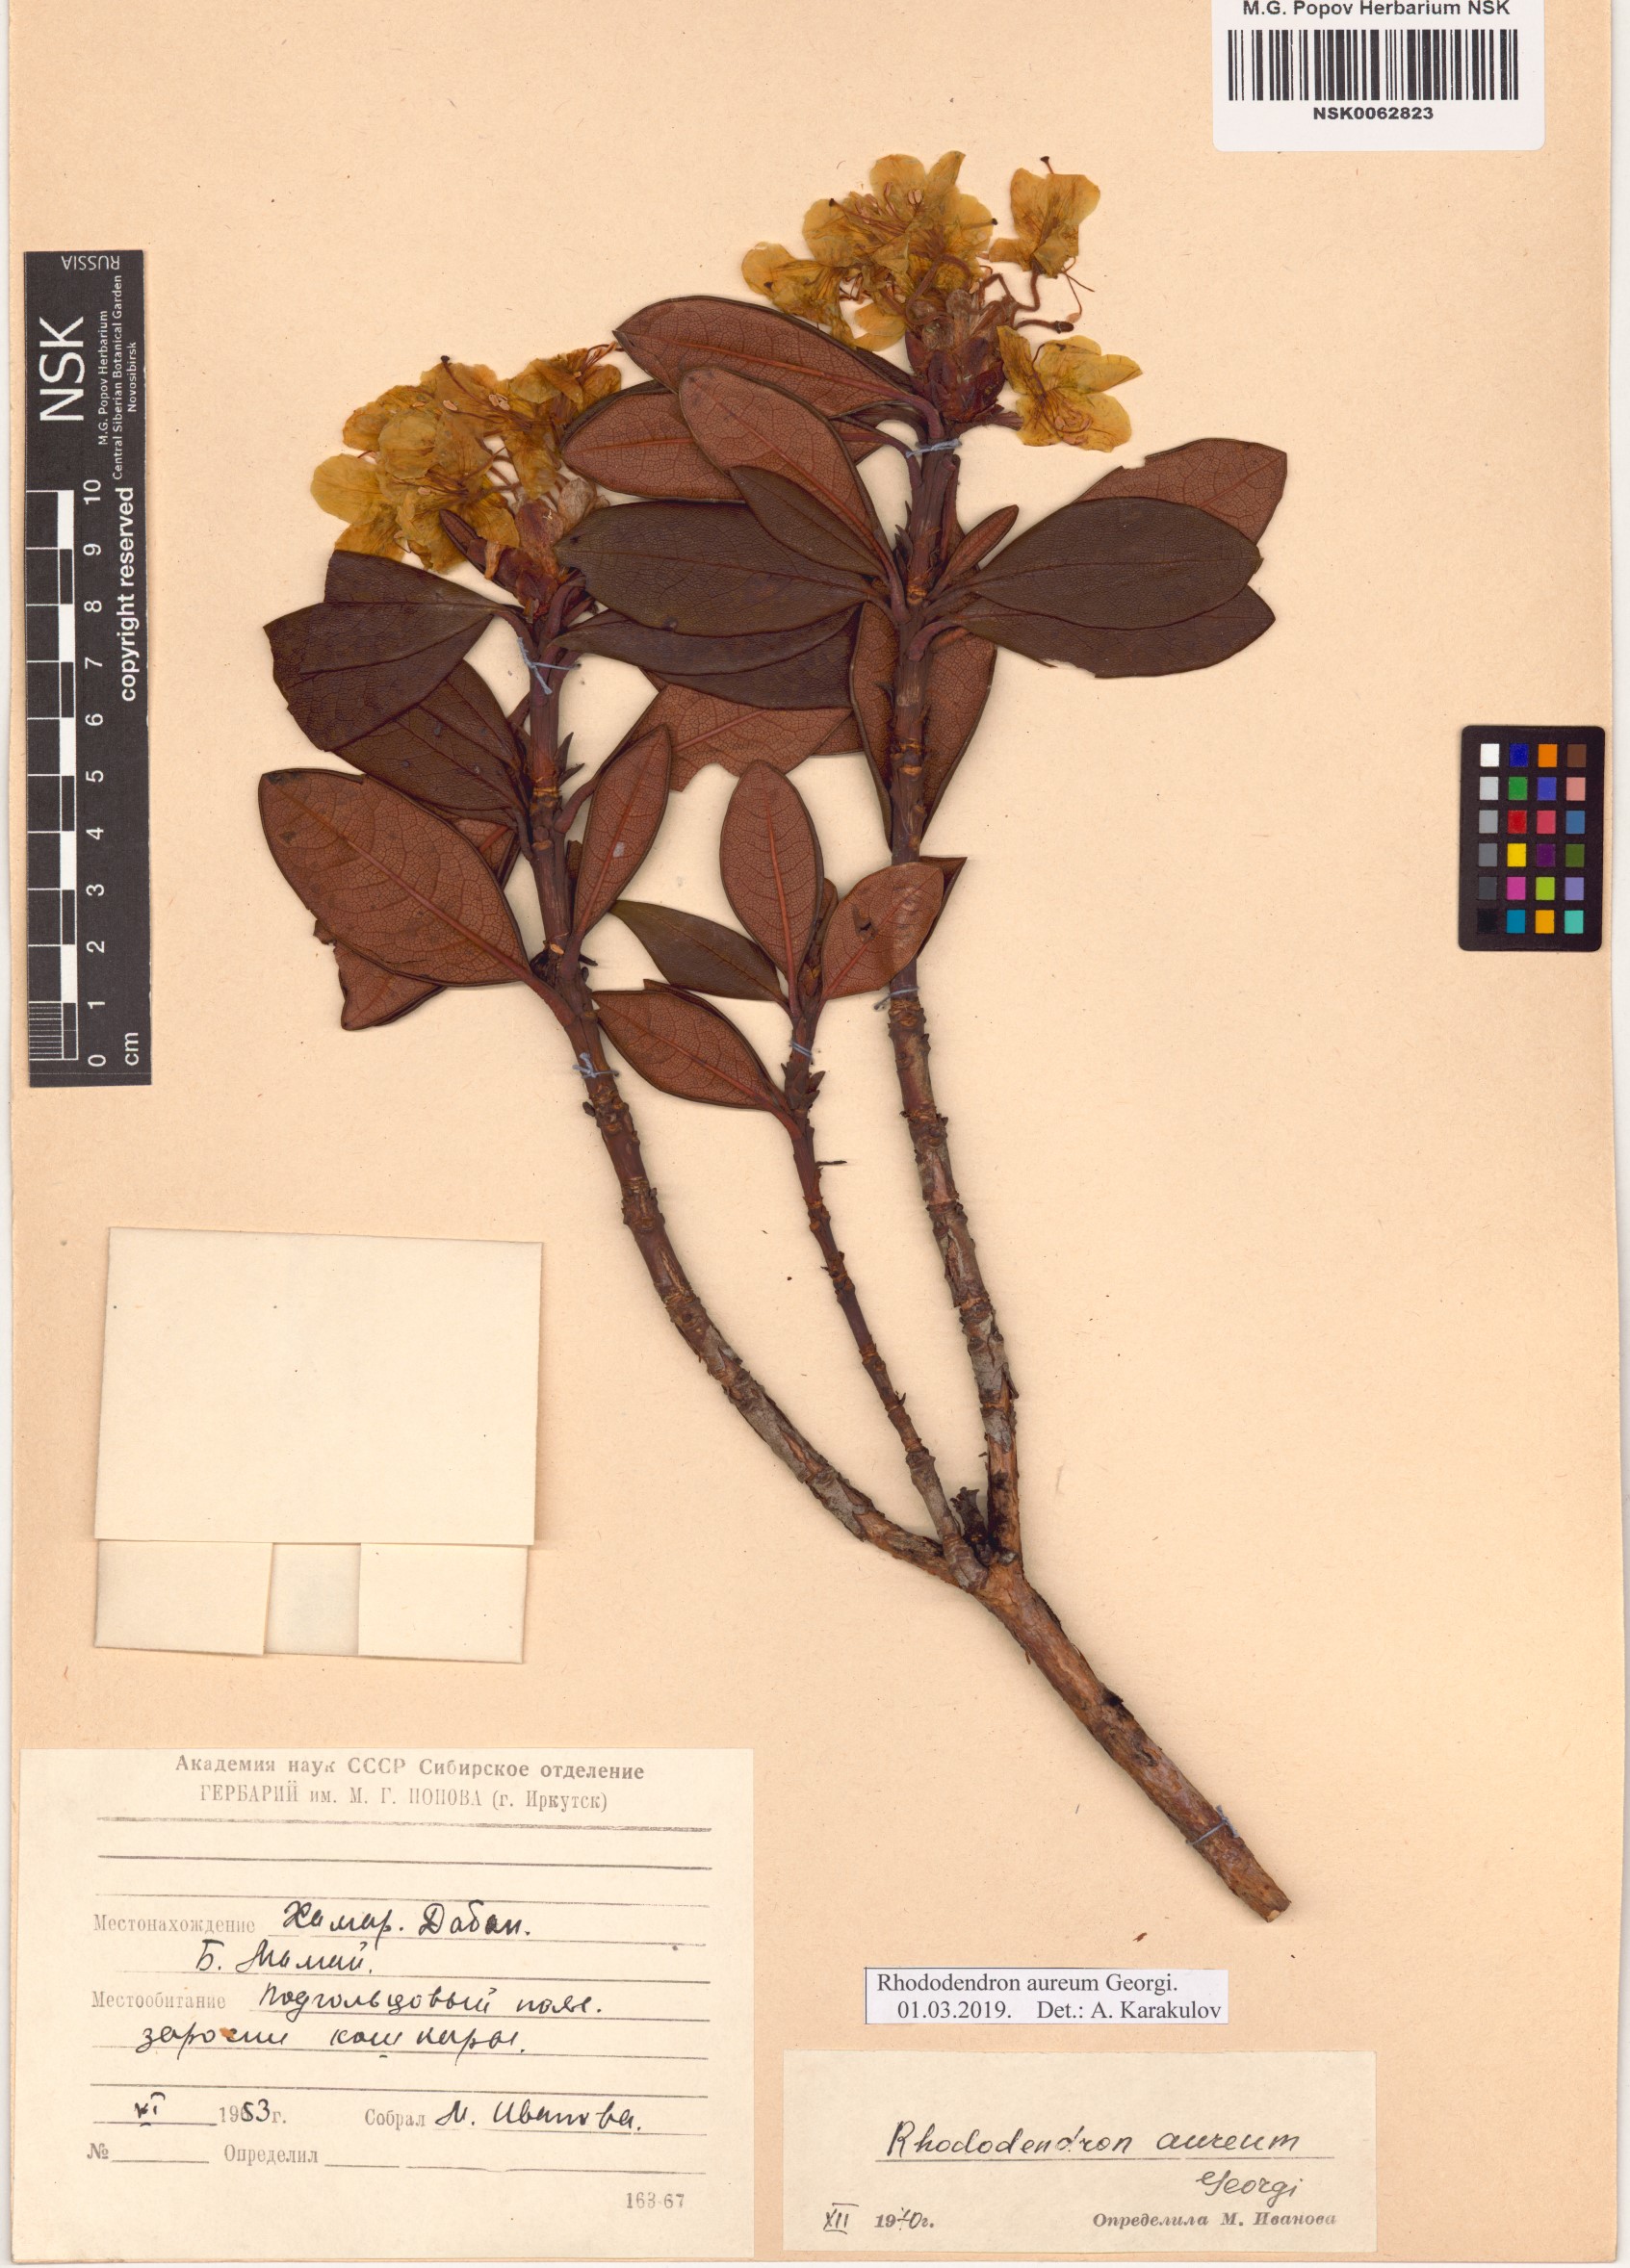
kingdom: Plantae
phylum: Tracheophyta
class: Magnoliopsida
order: Ericales
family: Ericaceae
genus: Rhododendron
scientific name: Rhododendron aureum
